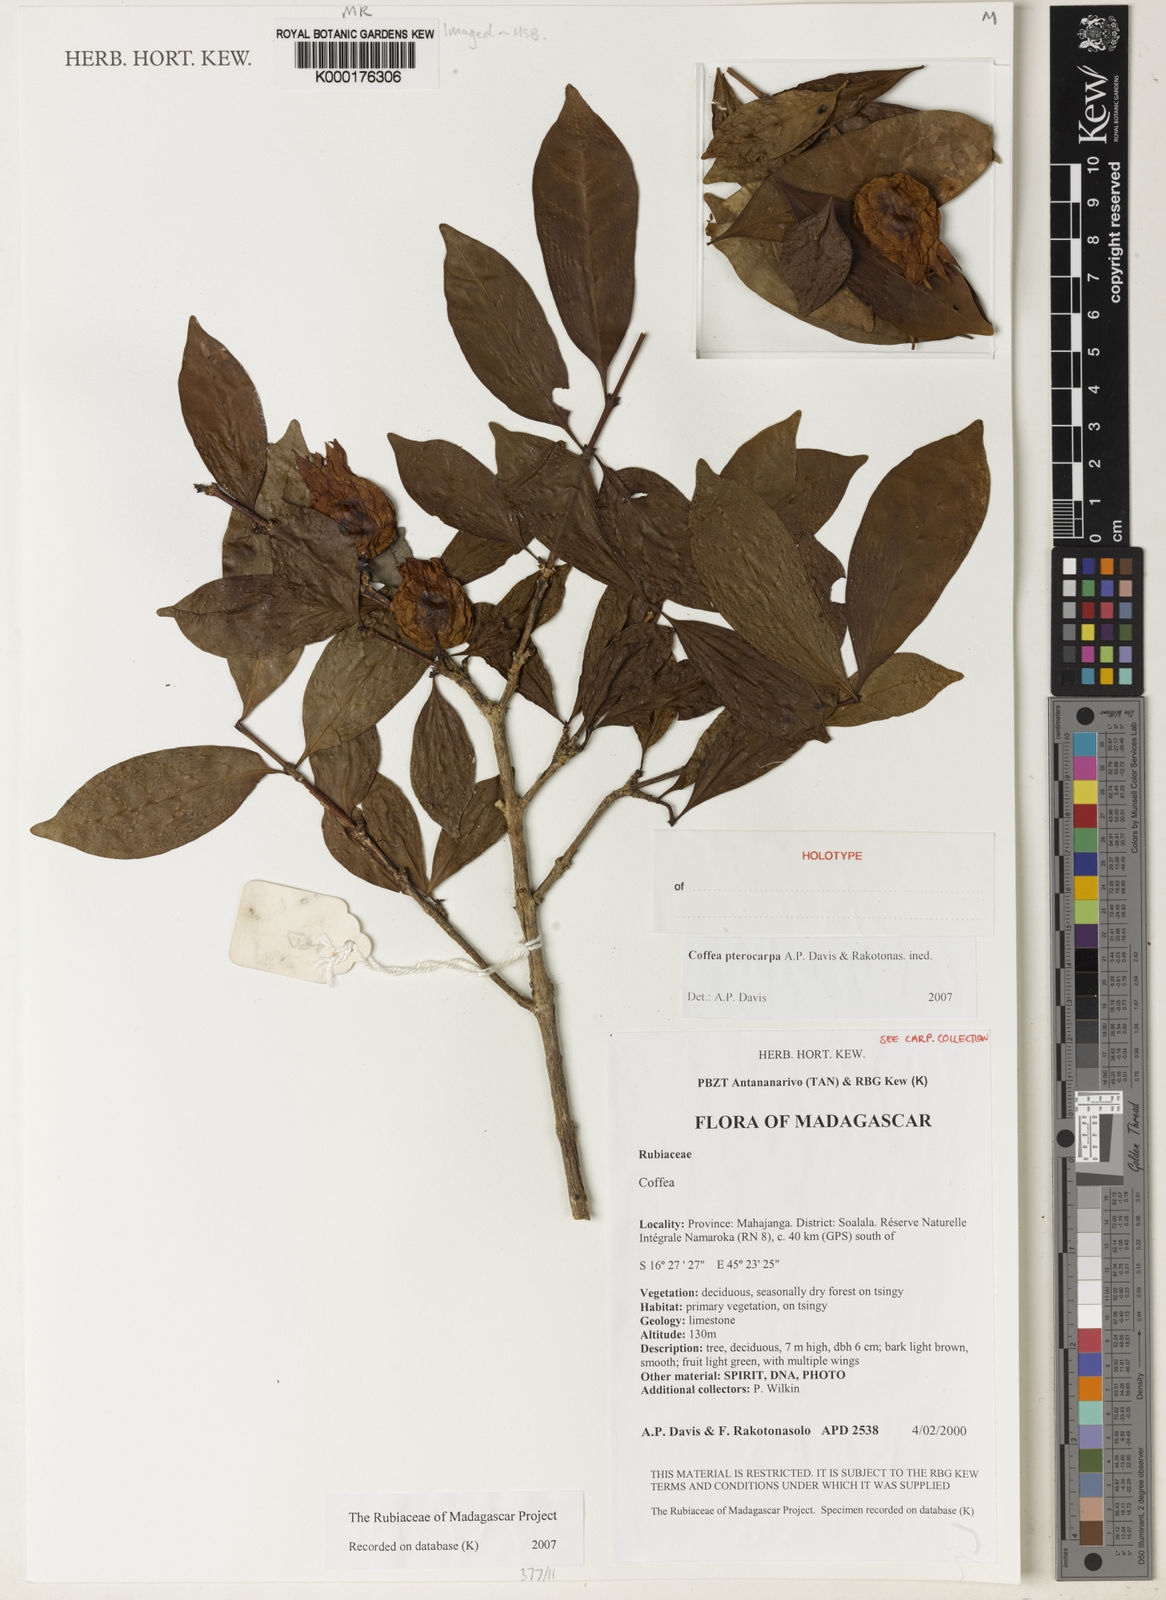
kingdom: Plantae
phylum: Tracheophyta
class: Magnoliopsida
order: Gentianales
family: Rubiaceae
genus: Coffea
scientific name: Coffea pterocarpa
